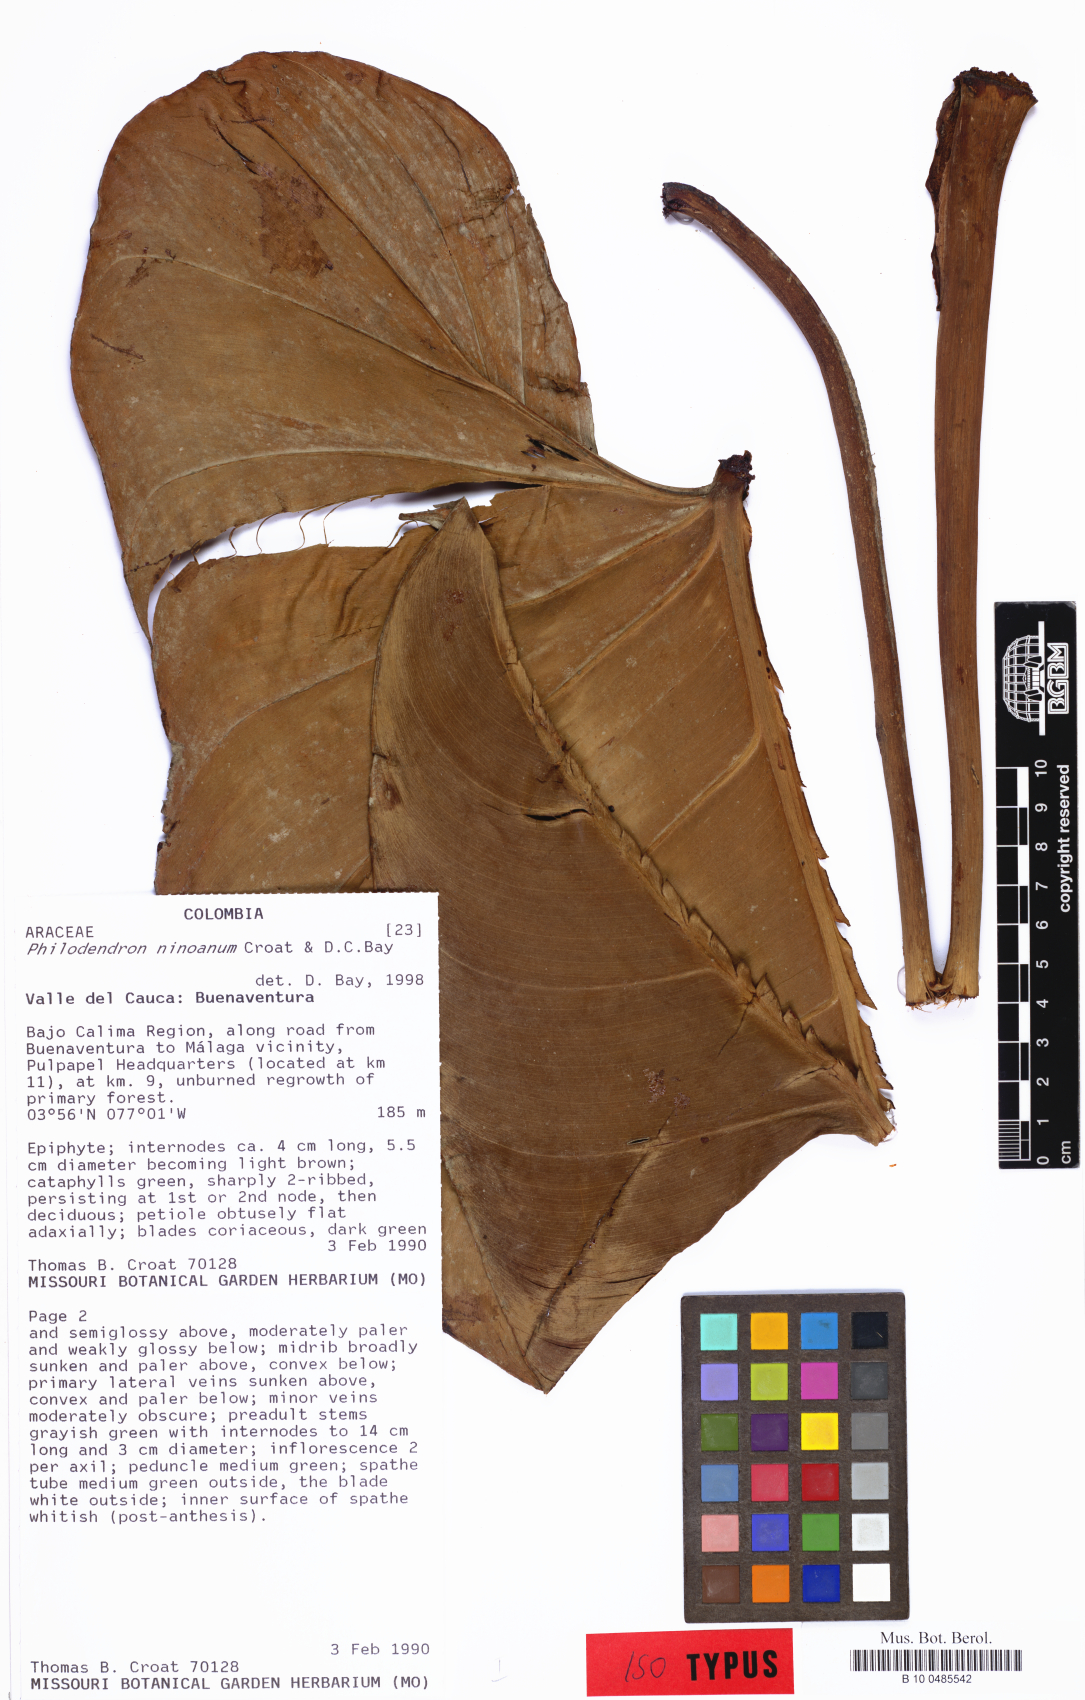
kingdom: Plantae
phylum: Tracheophyta
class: Liliopsida
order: Alismatales
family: Araceae
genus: Philodendron
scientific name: Philodendron ninoanum
